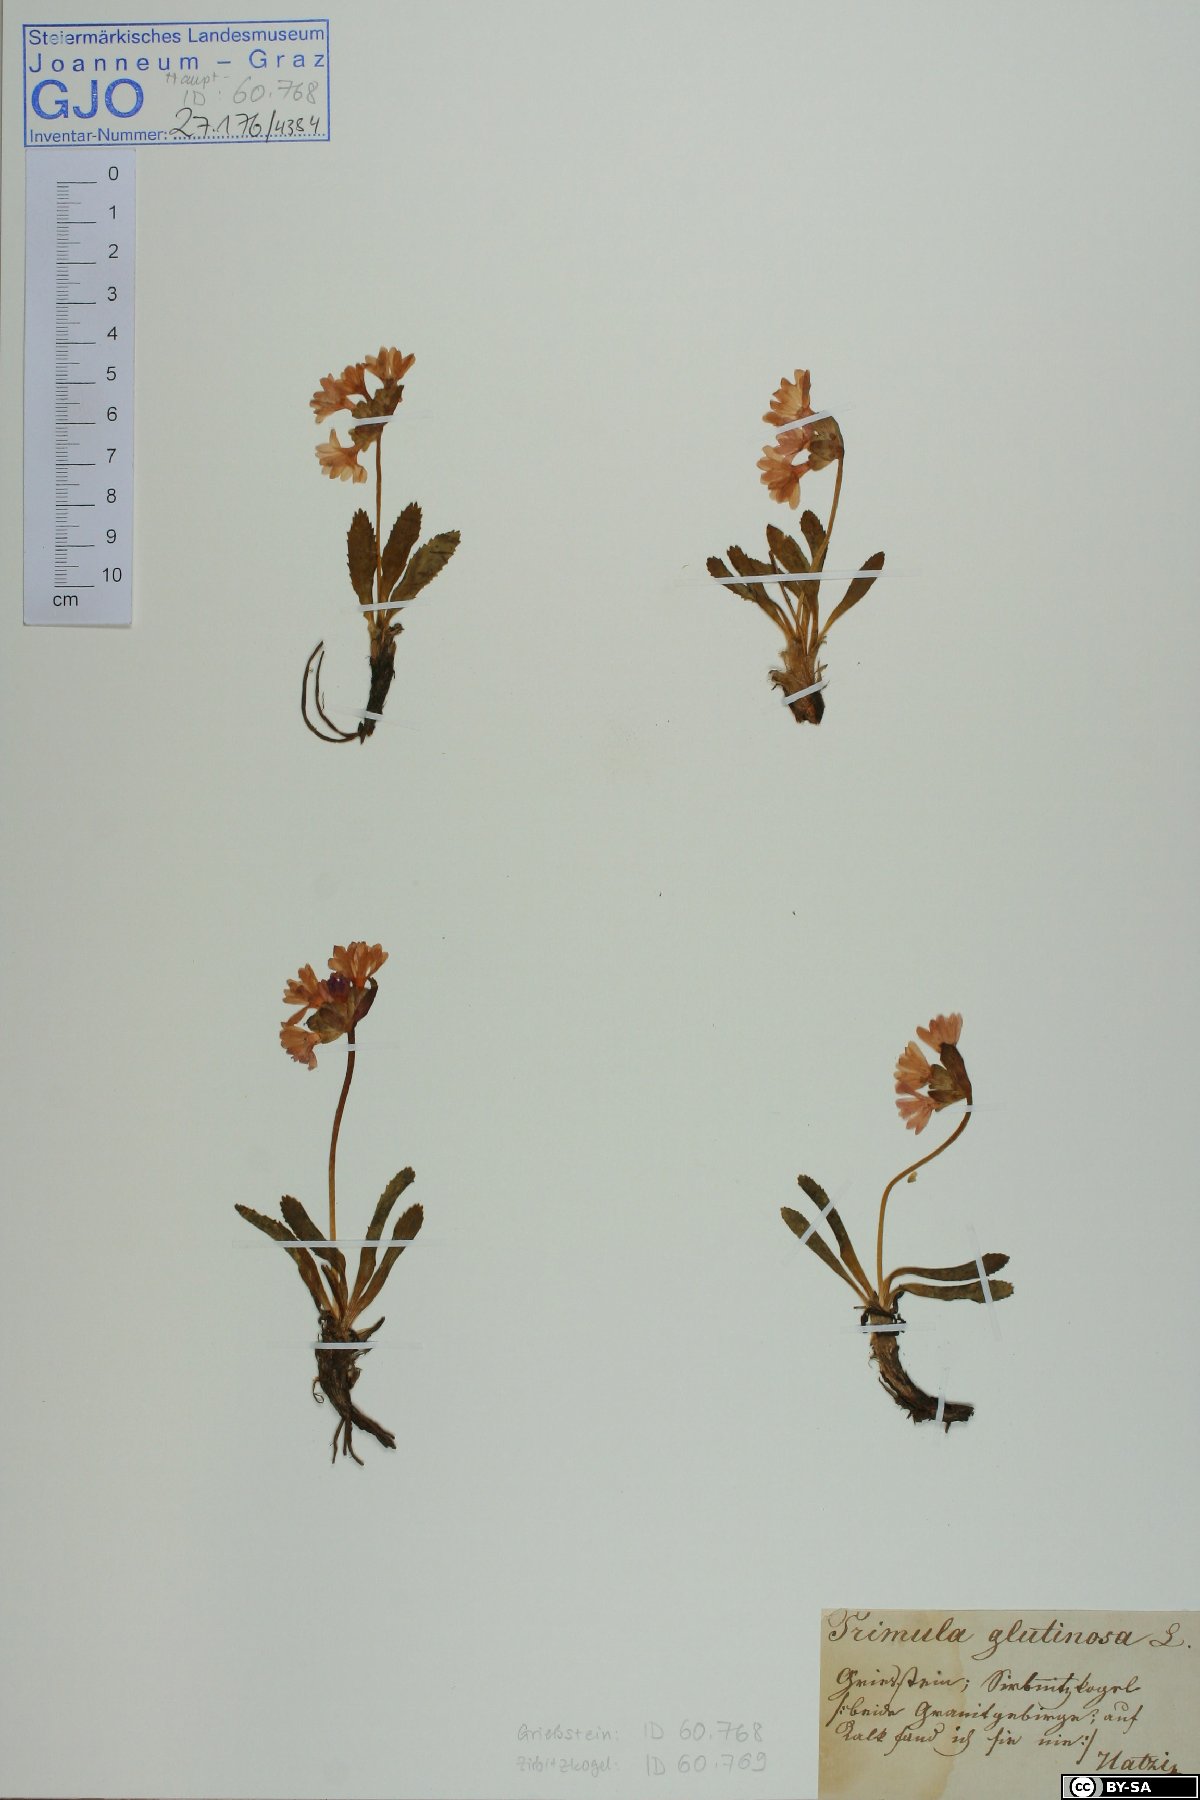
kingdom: Plantae
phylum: Tracheophyta
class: Magnoliopsida
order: Ericales
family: Primulaceae
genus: Primula
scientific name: Primula glutinosa
